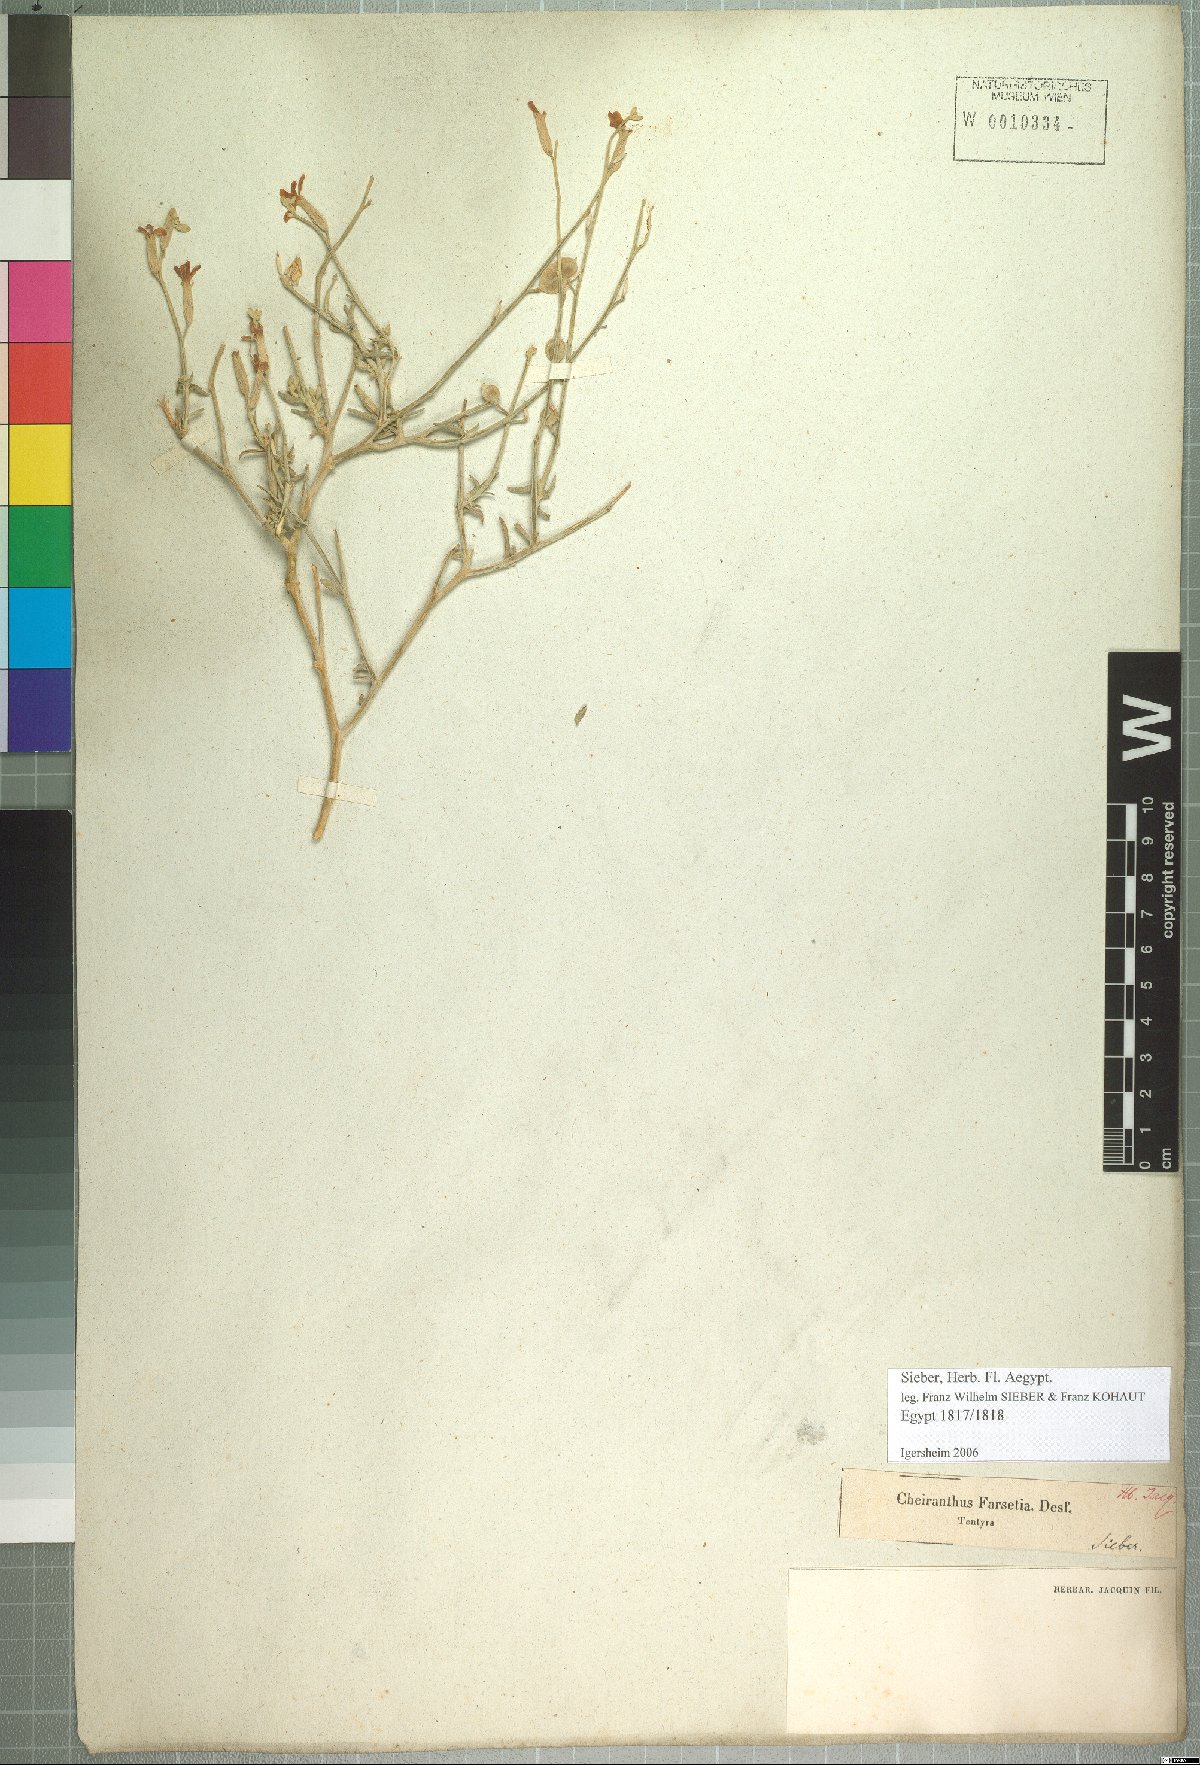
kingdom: Plantae
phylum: Tracheophyta
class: Magnoliopsida
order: Brassicales
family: Brassicaceae
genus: Farsetia
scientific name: Farsetia aegyptia
